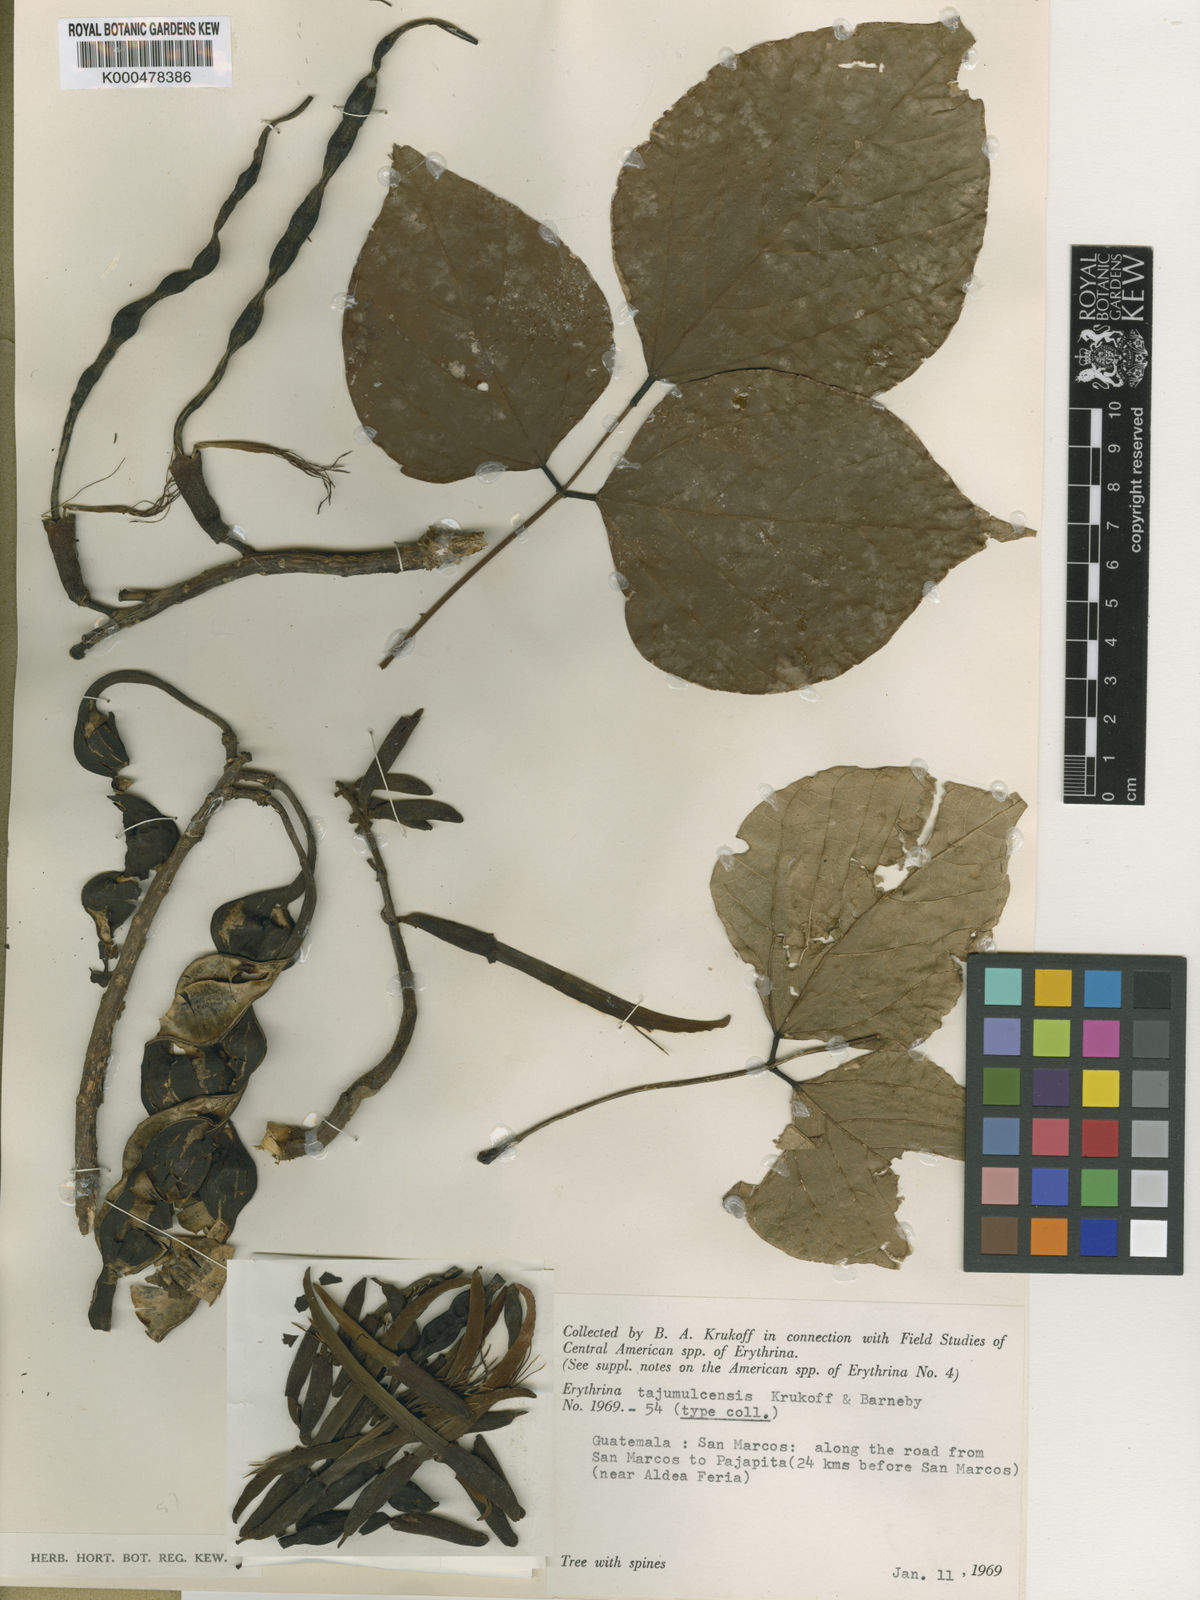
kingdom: Plantae
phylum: Tracheophyta
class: Magnoliopsida
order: Fabales
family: Fabaceae
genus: Erythrina
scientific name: Erythrina tajumulcensis
